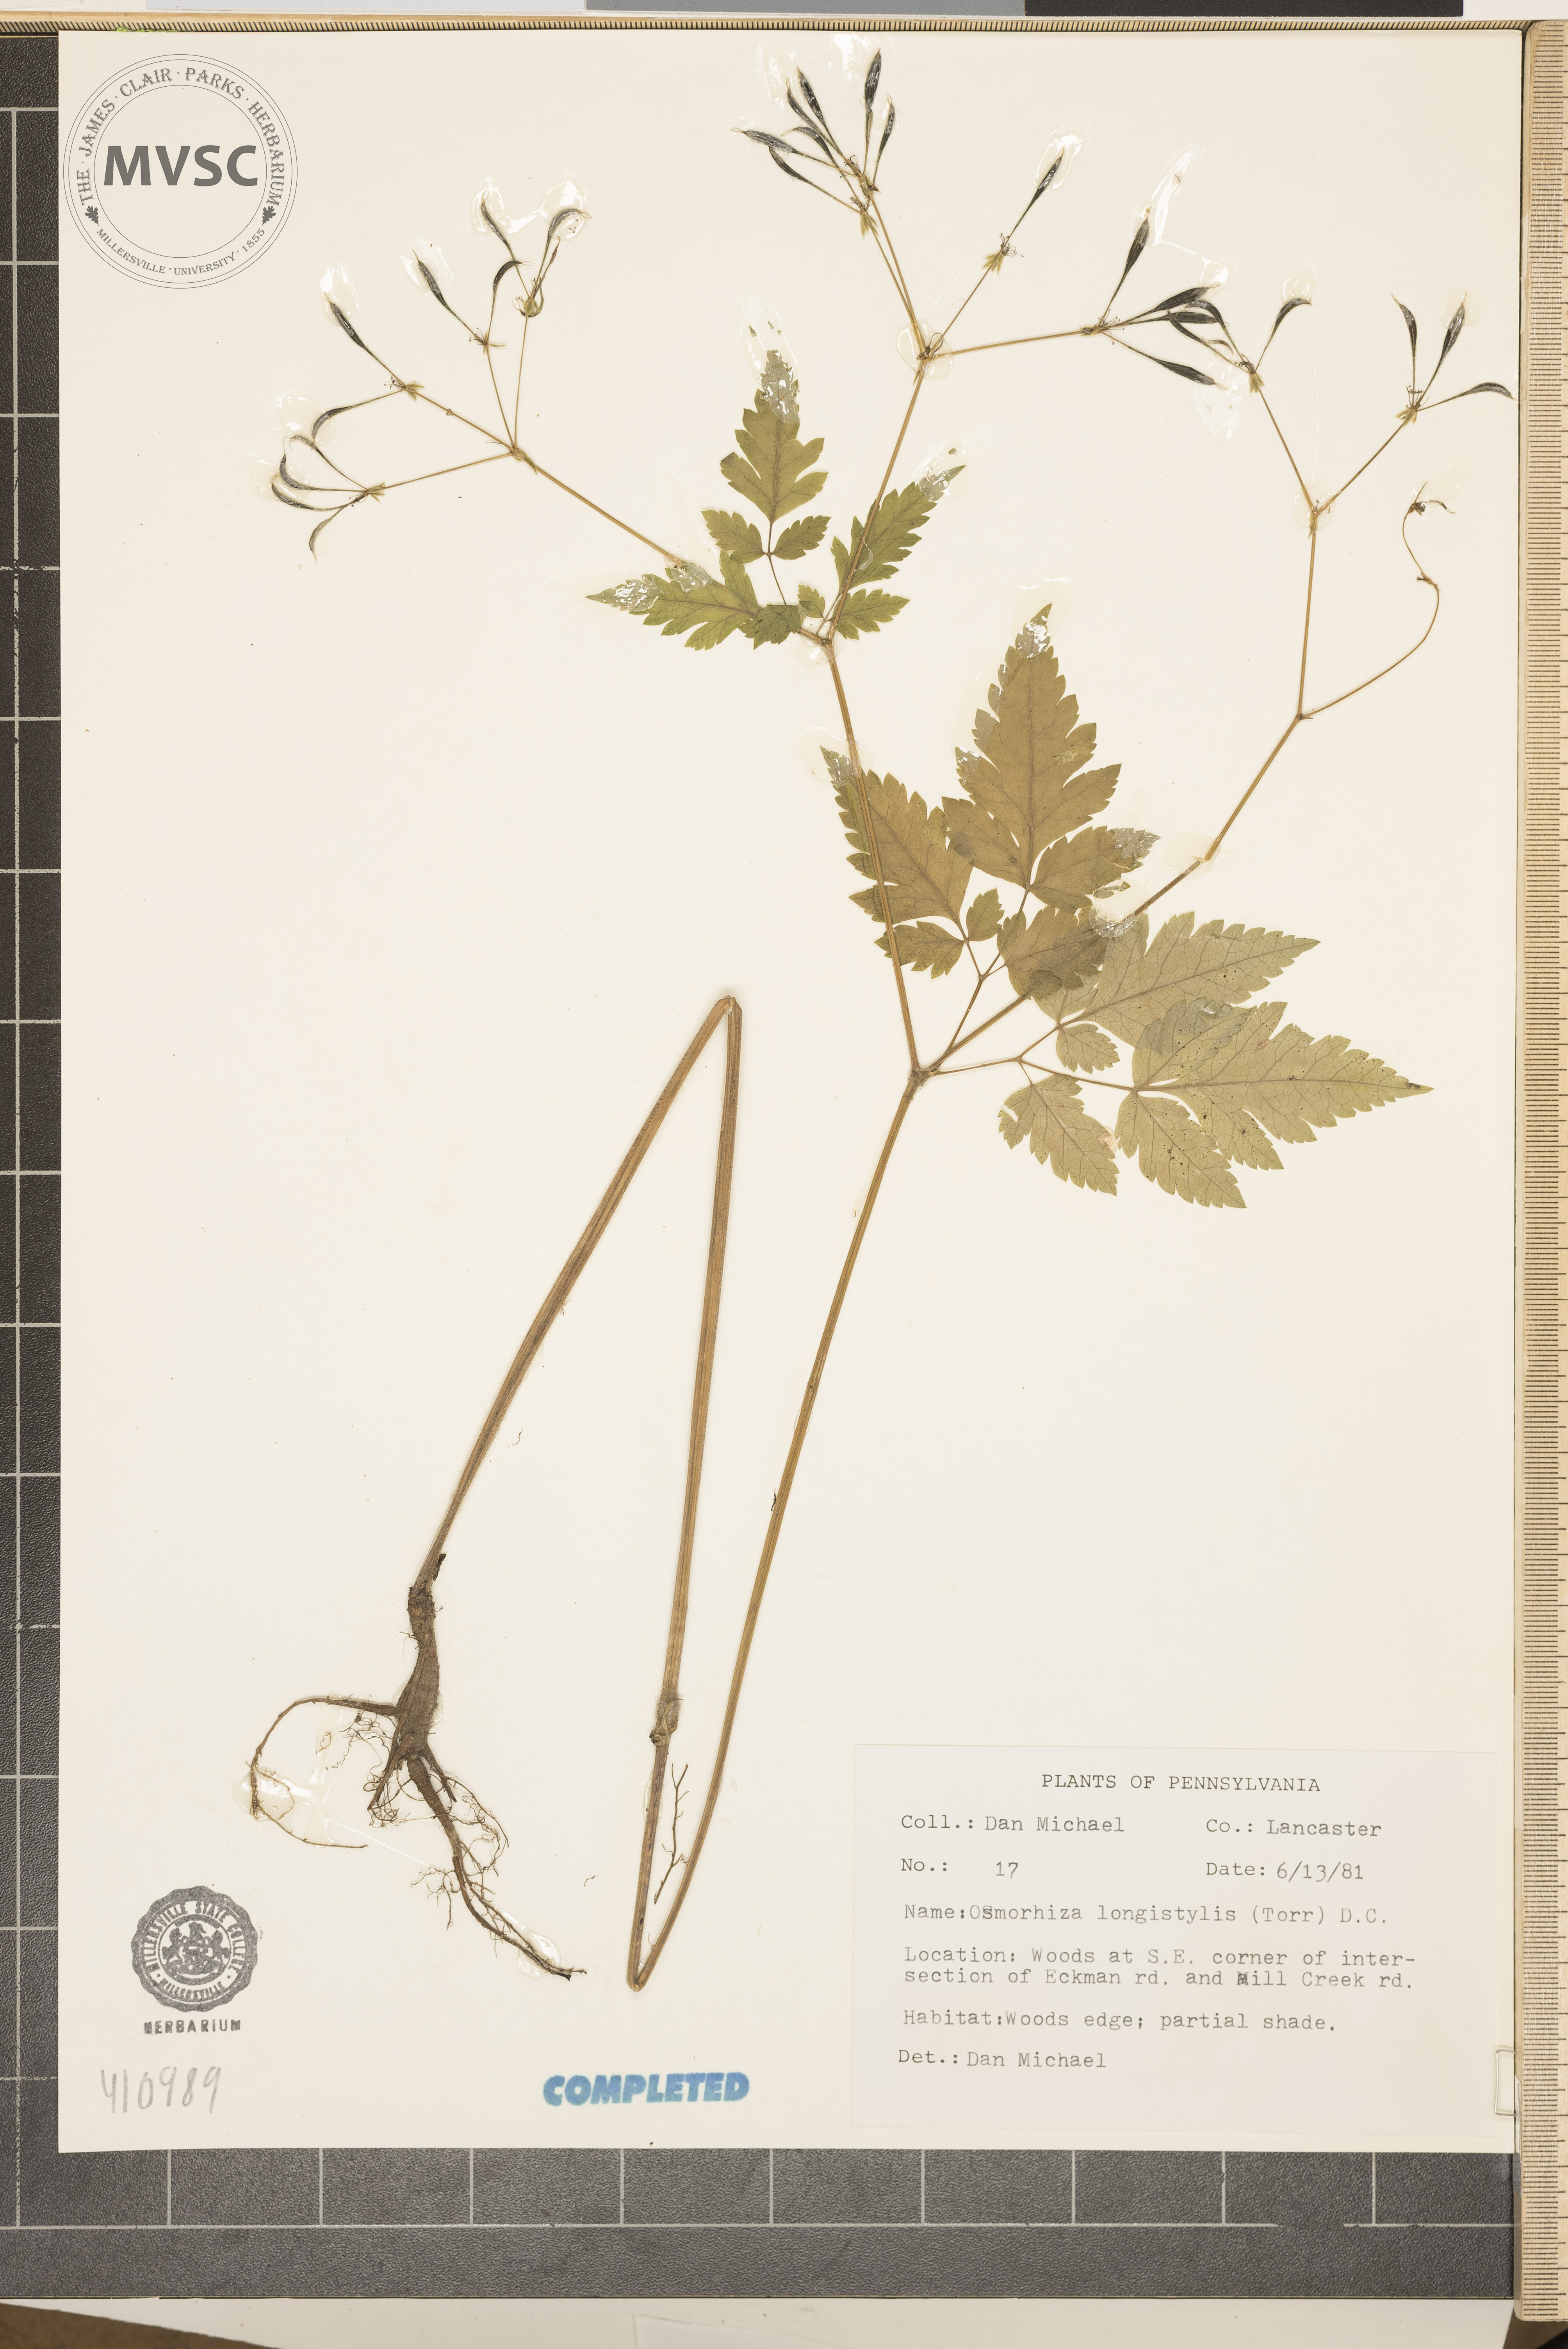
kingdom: Plantae
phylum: Tracheophyta
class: Magnoliopsida
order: Apiales
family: Apiaceae
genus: Osmorhiza
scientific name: Osmorhiza longistylis
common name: Smooth sweet cicely
